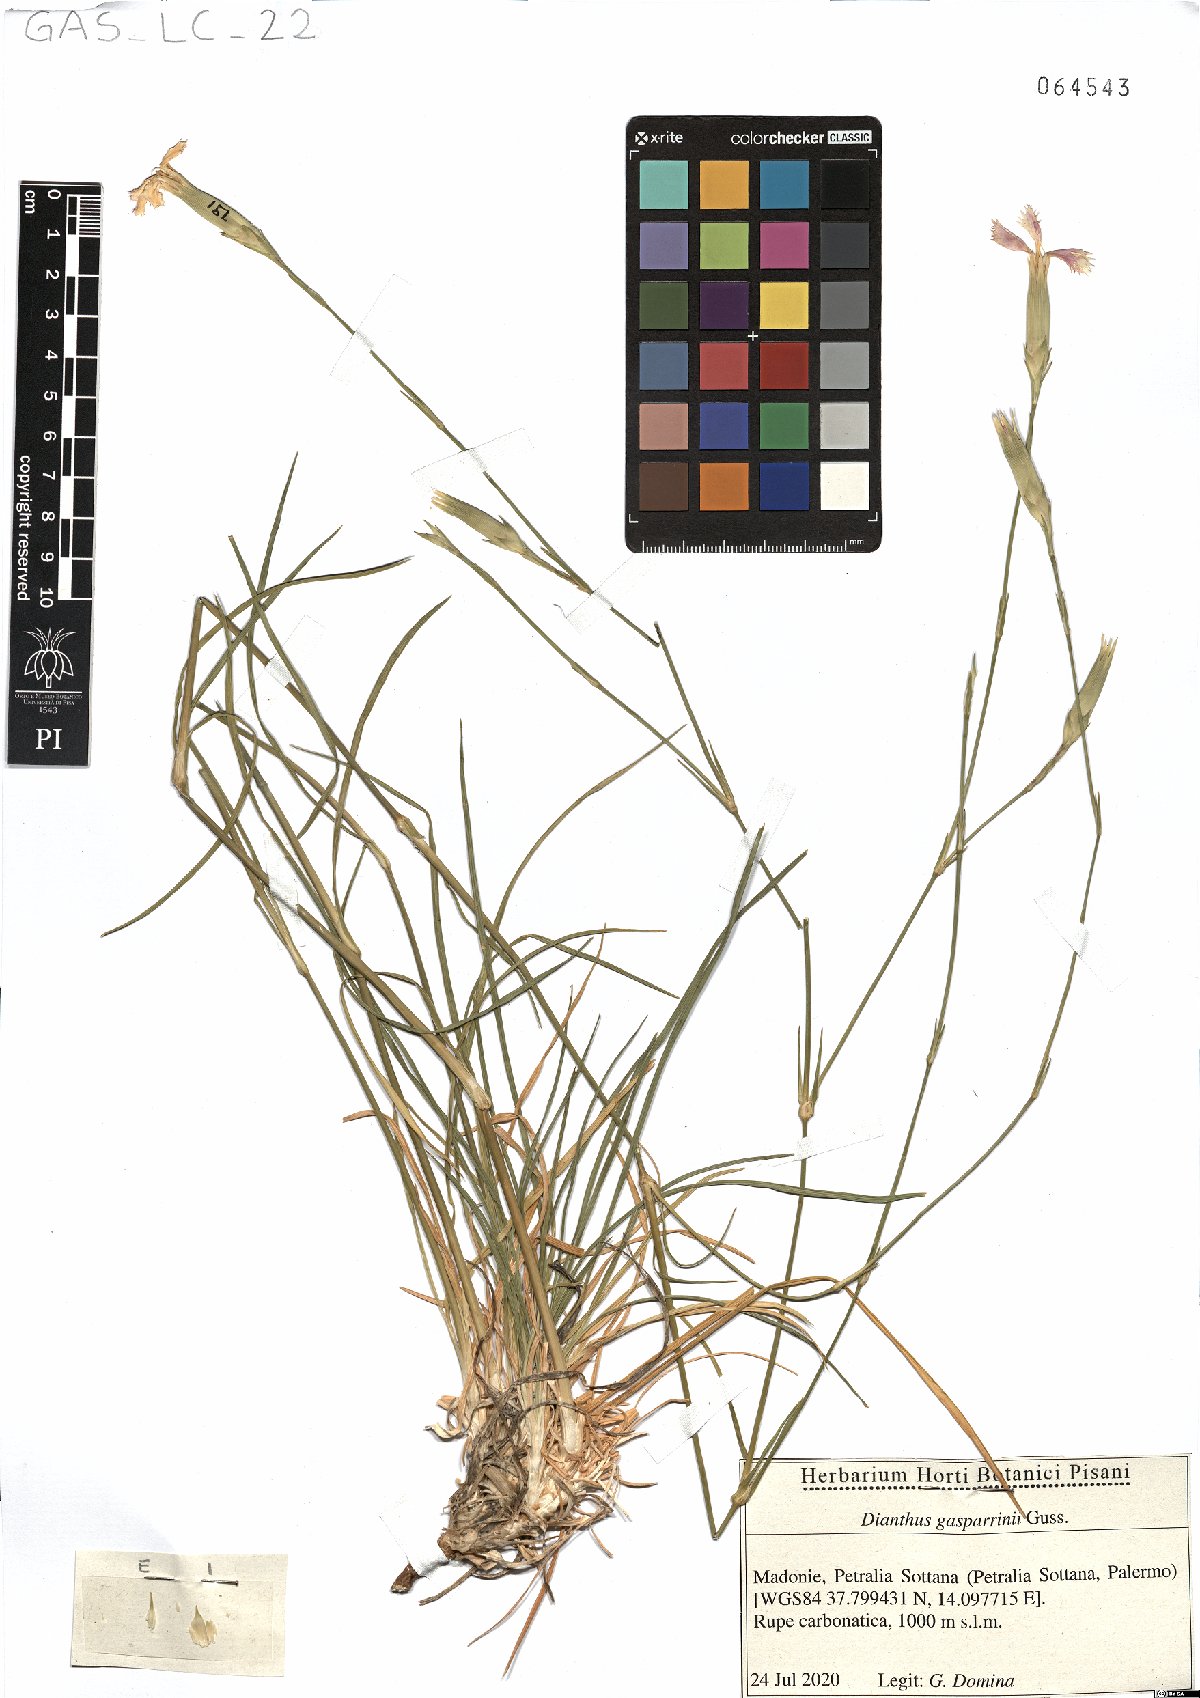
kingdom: Plantae
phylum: Tracheophyta
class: Magnoliopsida
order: Caryophyllales
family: Caryophyllaceae
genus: Dianthus
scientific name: Dianthus gasparrinii
